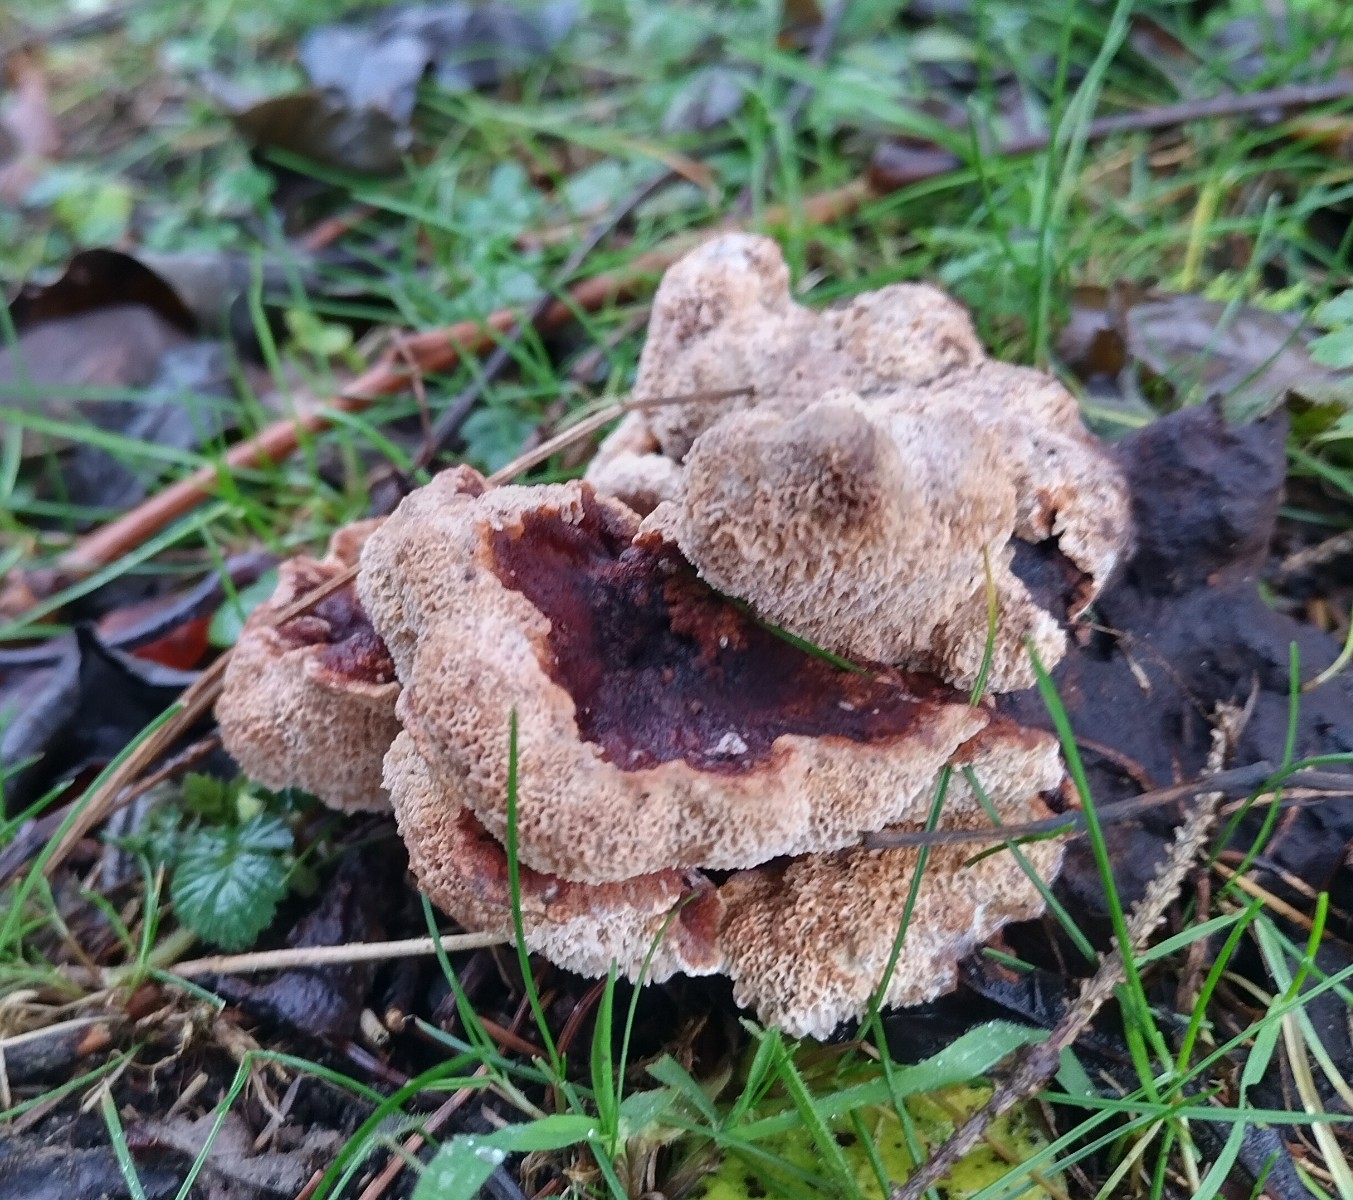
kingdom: Fungi
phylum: Basidiomycota
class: Agaricomycetes
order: Polyporales
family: Podoscyphaceae
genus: Abortiporus
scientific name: Abortiporus biennis
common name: rødmende pjalteporesvamp
